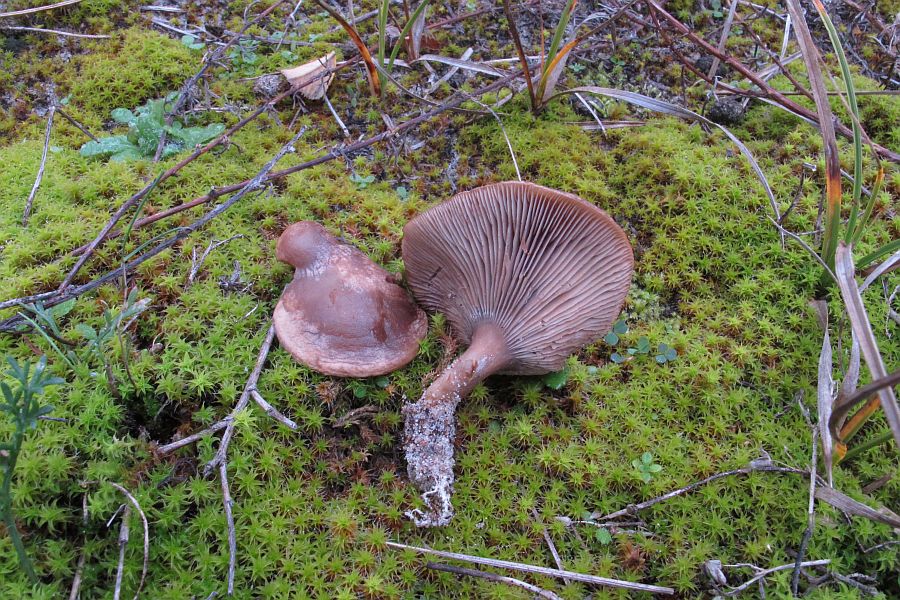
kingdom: Fungi
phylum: Basidiomycota
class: Agaricomycetes
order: Agaricales
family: Tricholomataceae
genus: Lulesia
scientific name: Lulesia
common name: sortnende troldhat
